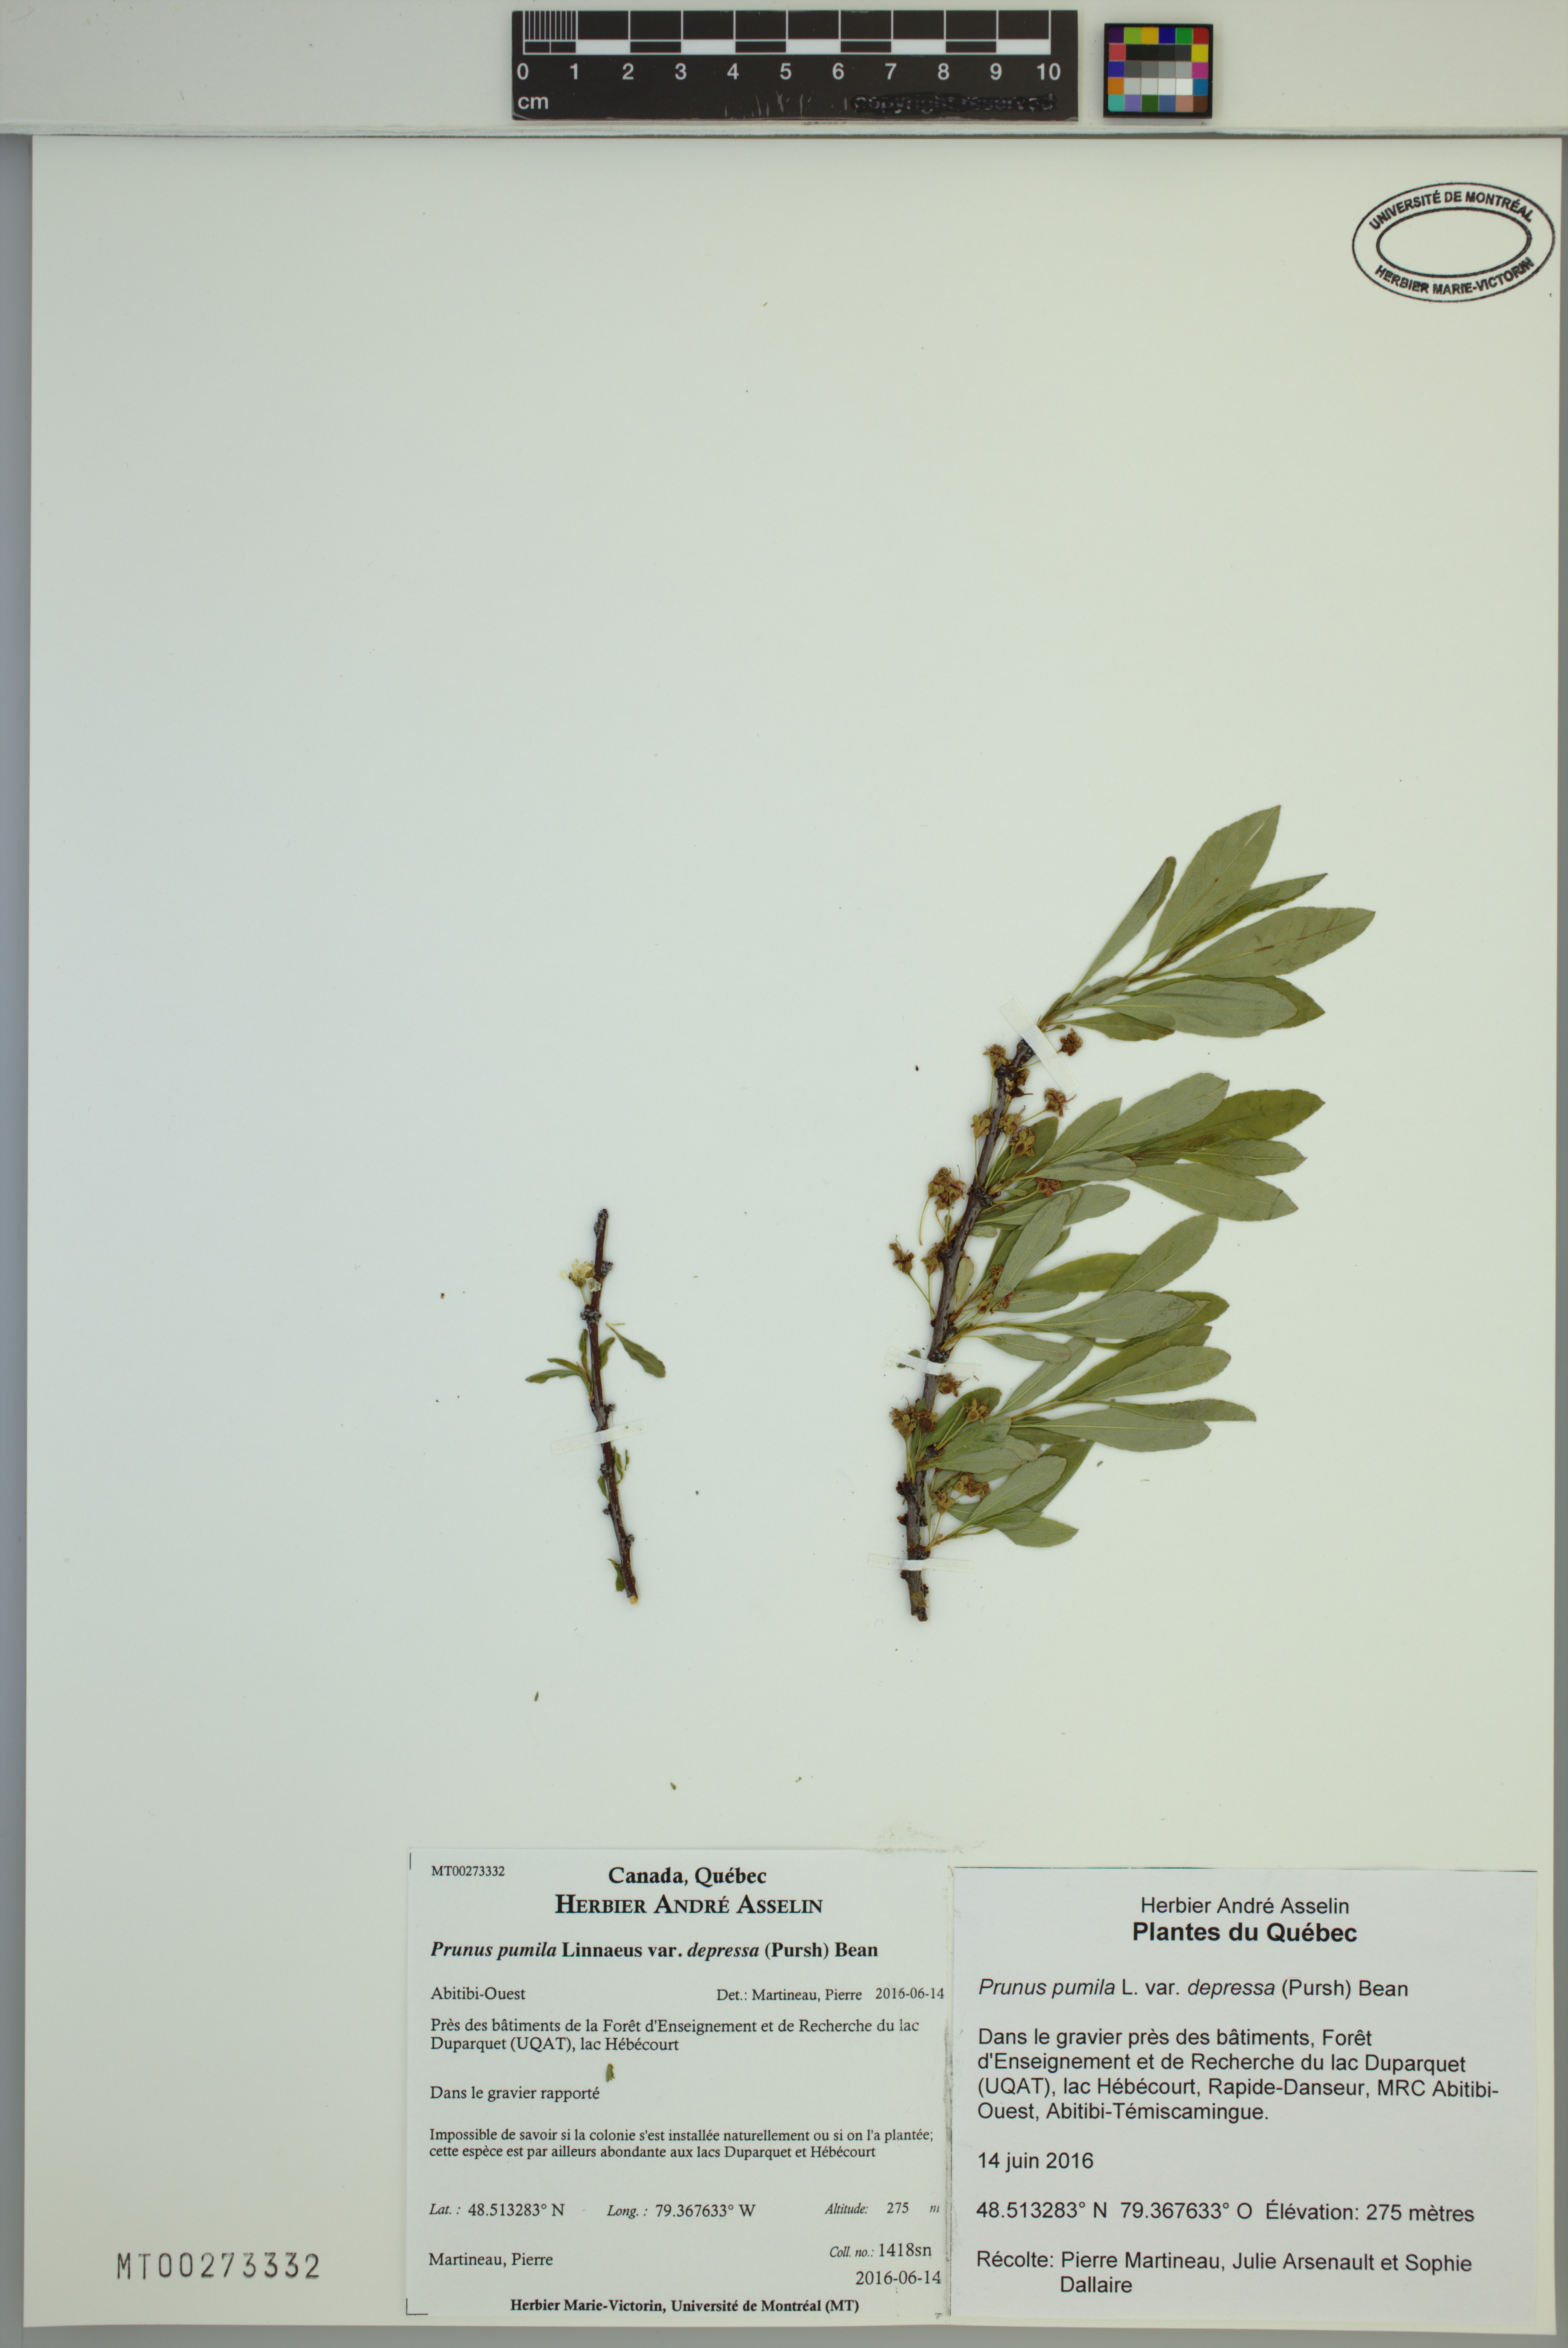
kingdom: Plantae
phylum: Tracheophyta
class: Magnoliopsida
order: Rosales
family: Rosaceae
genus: Prunus
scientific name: Prunus pumila
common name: Dwarf cherry
